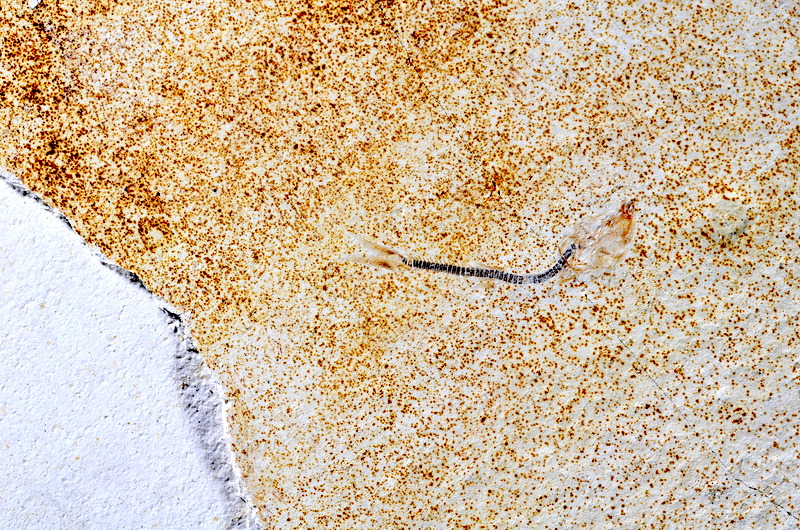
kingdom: Animalia
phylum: Chordata
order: Salmoniformes
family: Orthogonikleithridae
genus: Orthogonikleithrus
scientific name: Orthogonikleithrus hoelli
